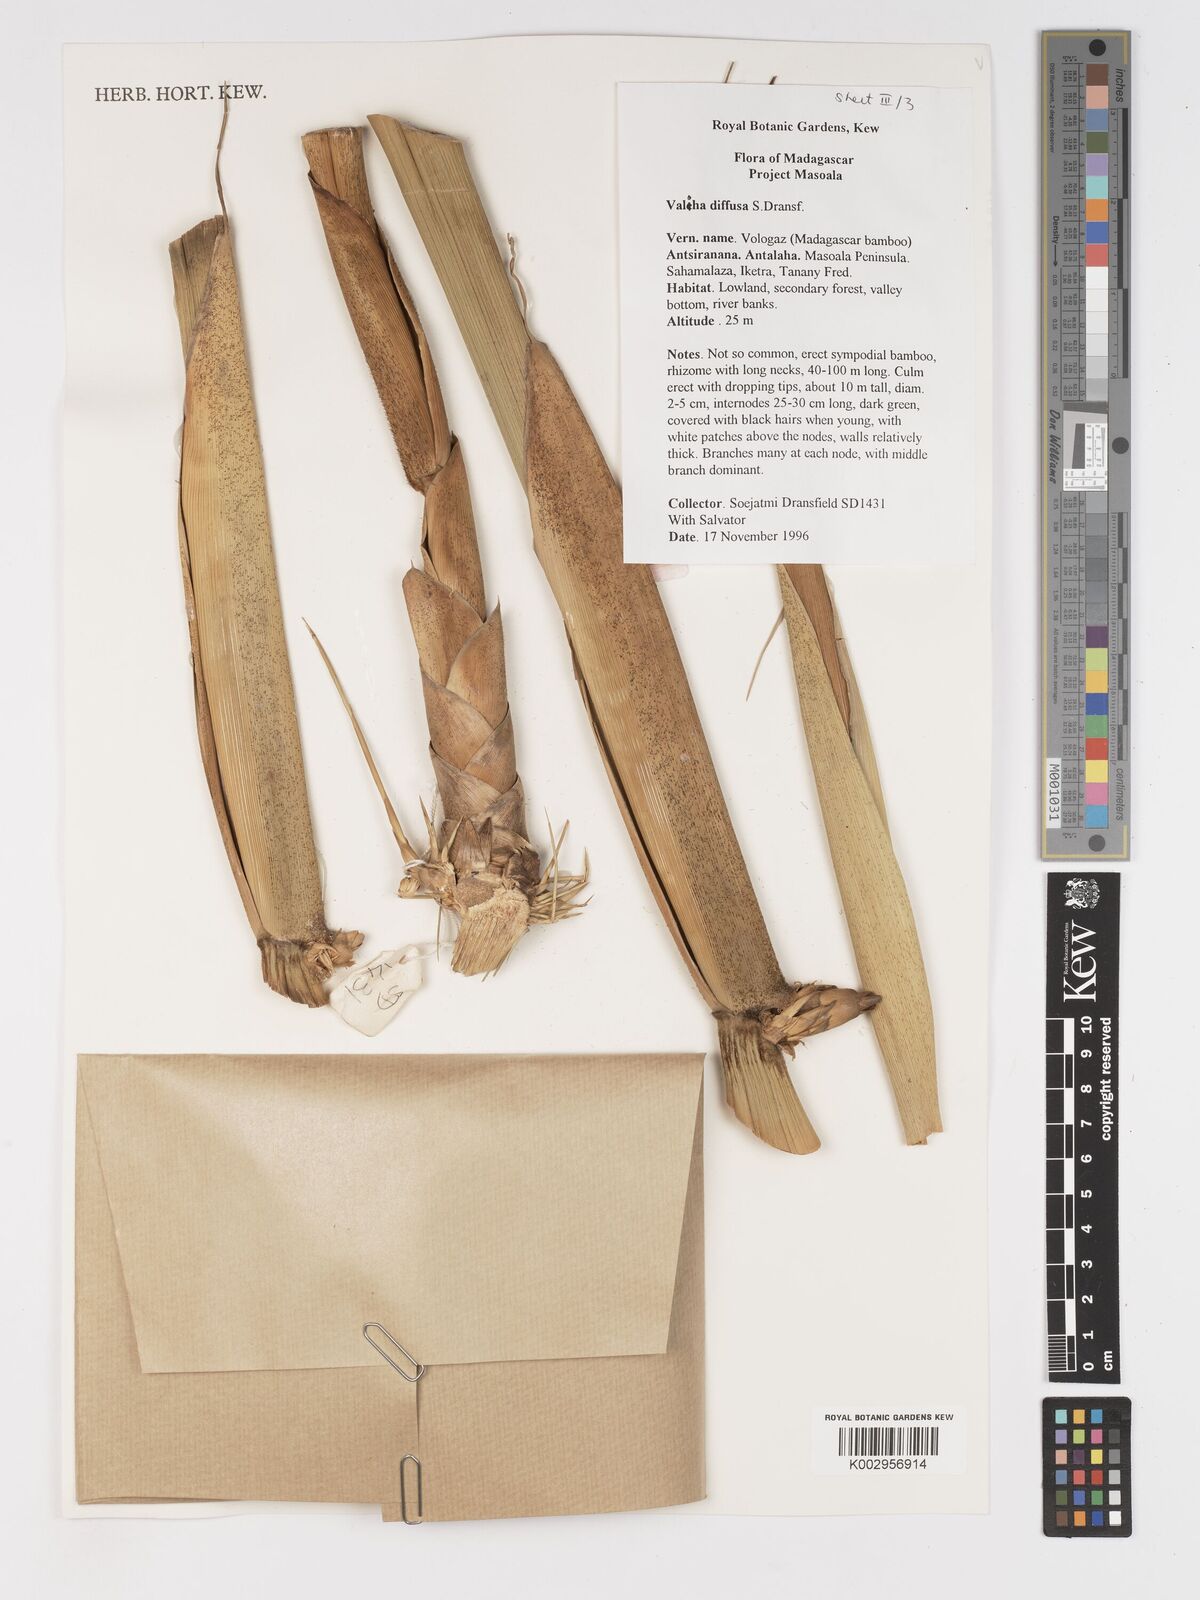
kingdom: Plantae
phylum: Tracheophyta
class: Liliopsida
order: Poales
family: Poaceae
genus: Valiha
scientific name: Valiha diffusa
